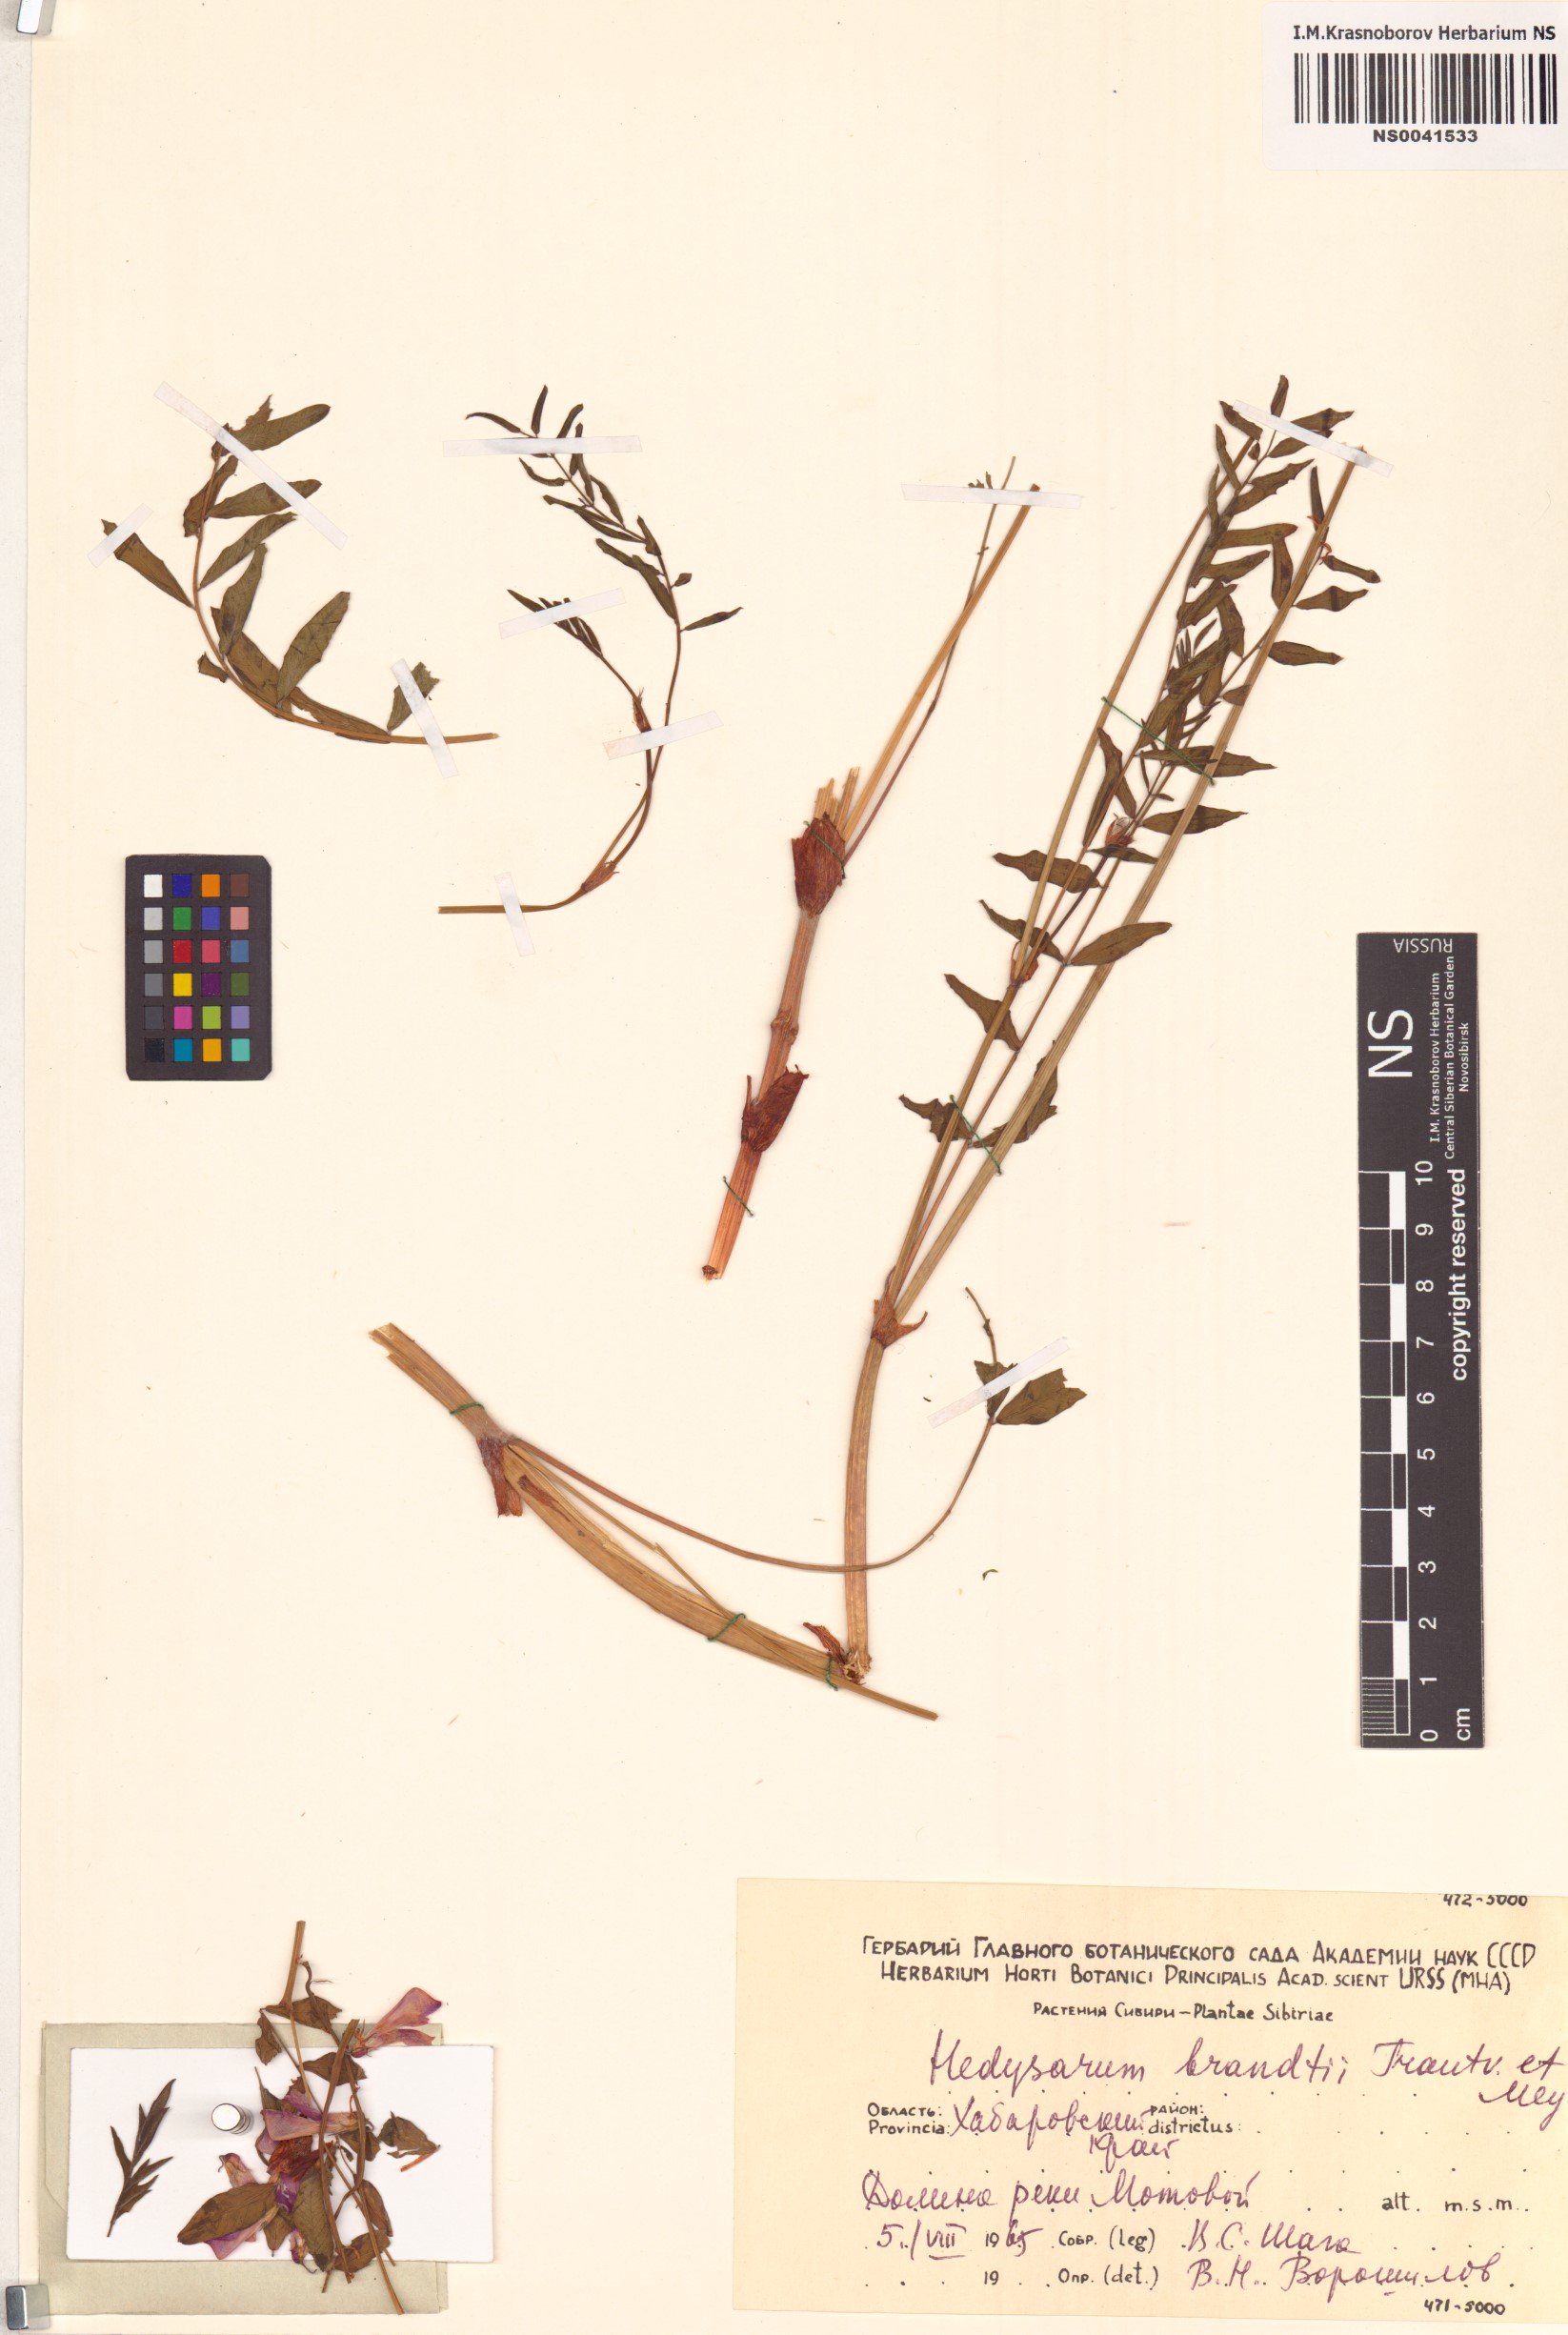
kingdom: Plantae
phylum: Tracheophyta
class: Magnoliopsida
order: Fabales
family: Fabaceae
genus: Hedysarum
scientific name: Hedysarum branthii
